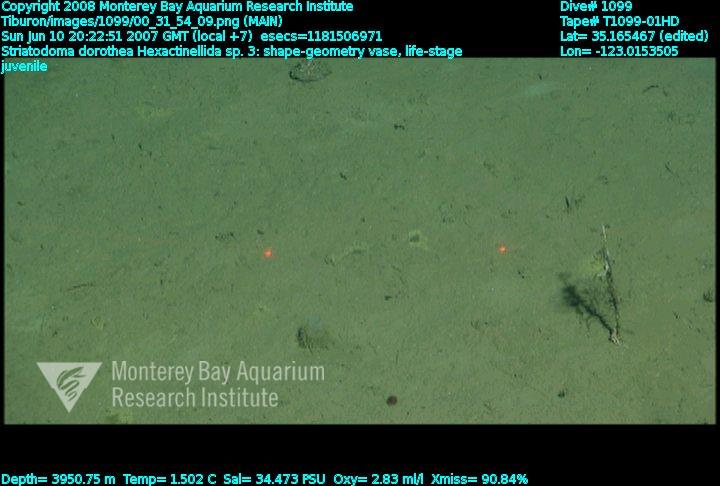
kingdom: Animalia
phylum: Porifera
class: Hexactinellida
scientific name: Hexactinellida
